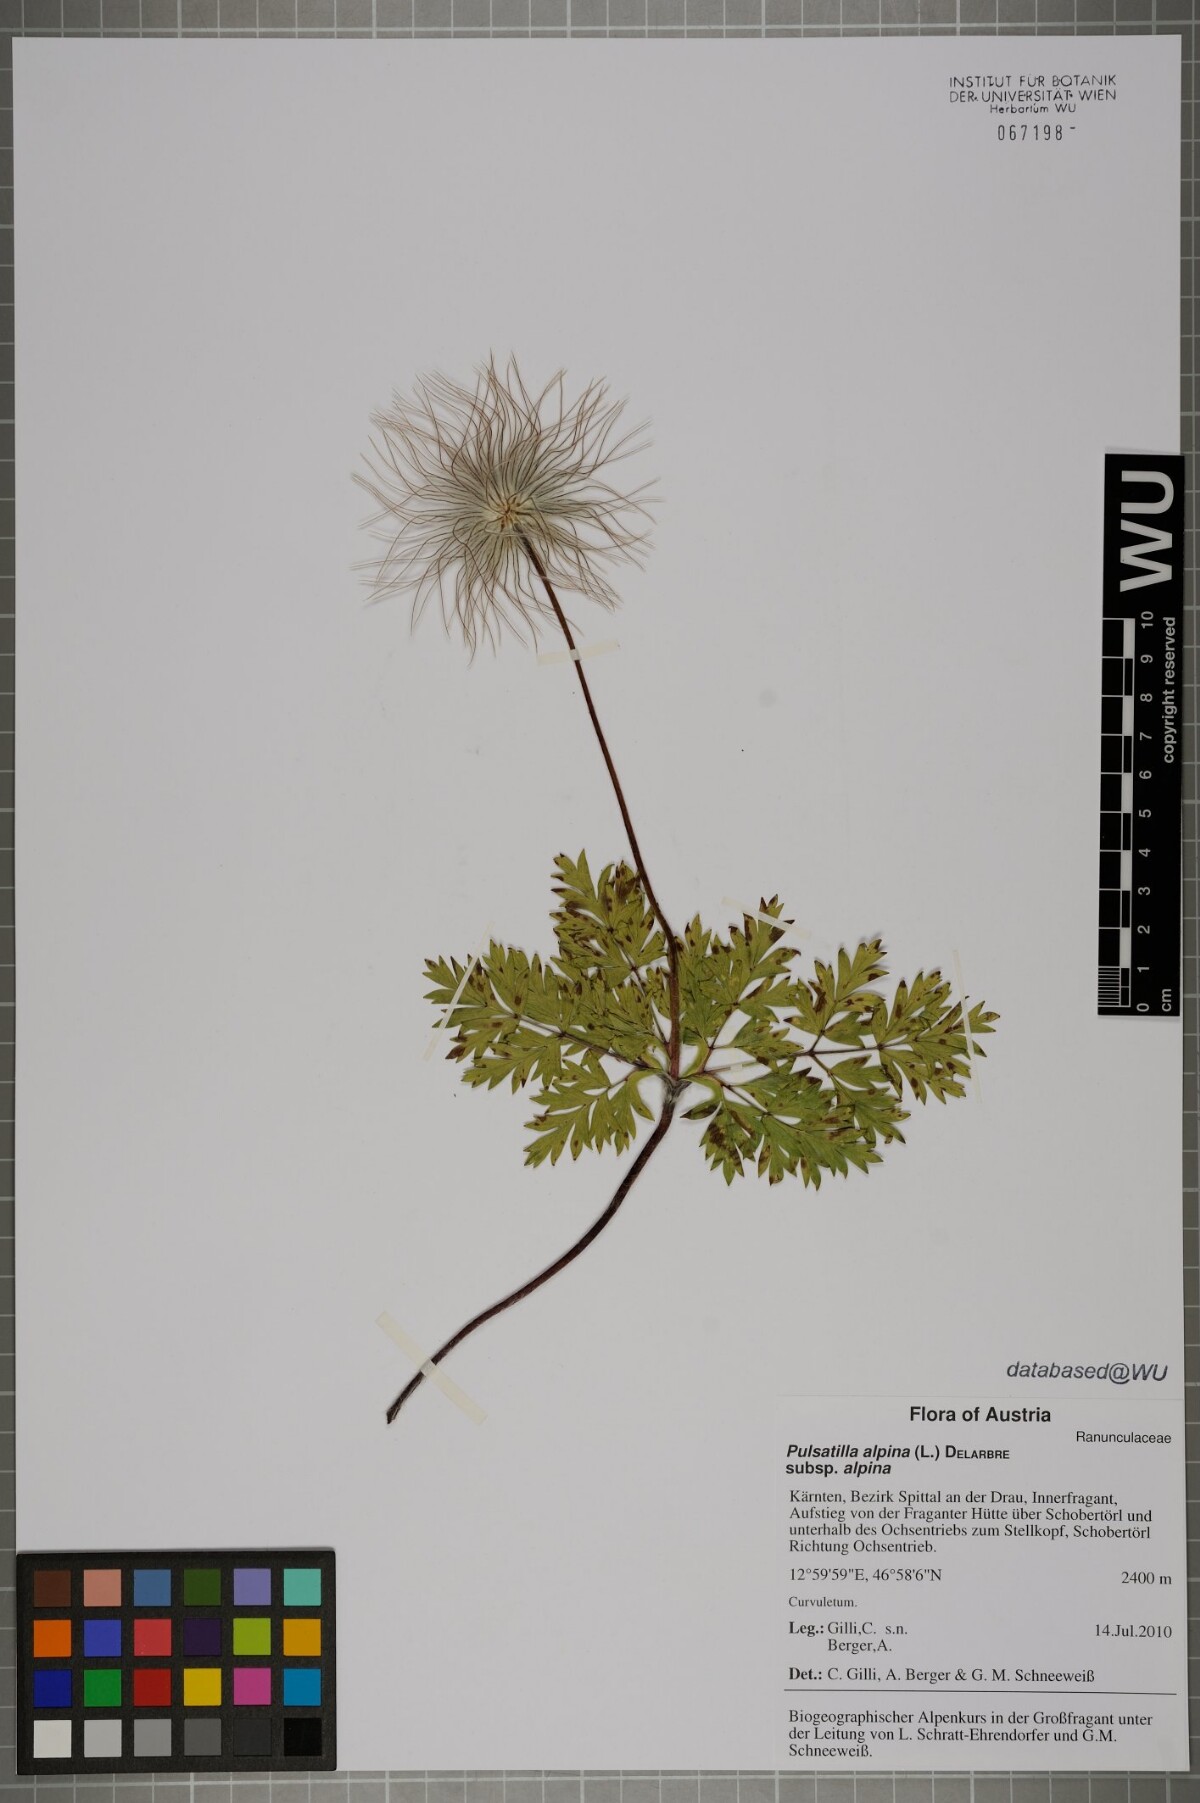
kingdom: Plantae
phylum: Tracheophyta
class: Magnoliopsida
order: Ranunculales
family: Ranunculaceae
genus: Pulsatilla
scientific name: Pulsatilla alpina
